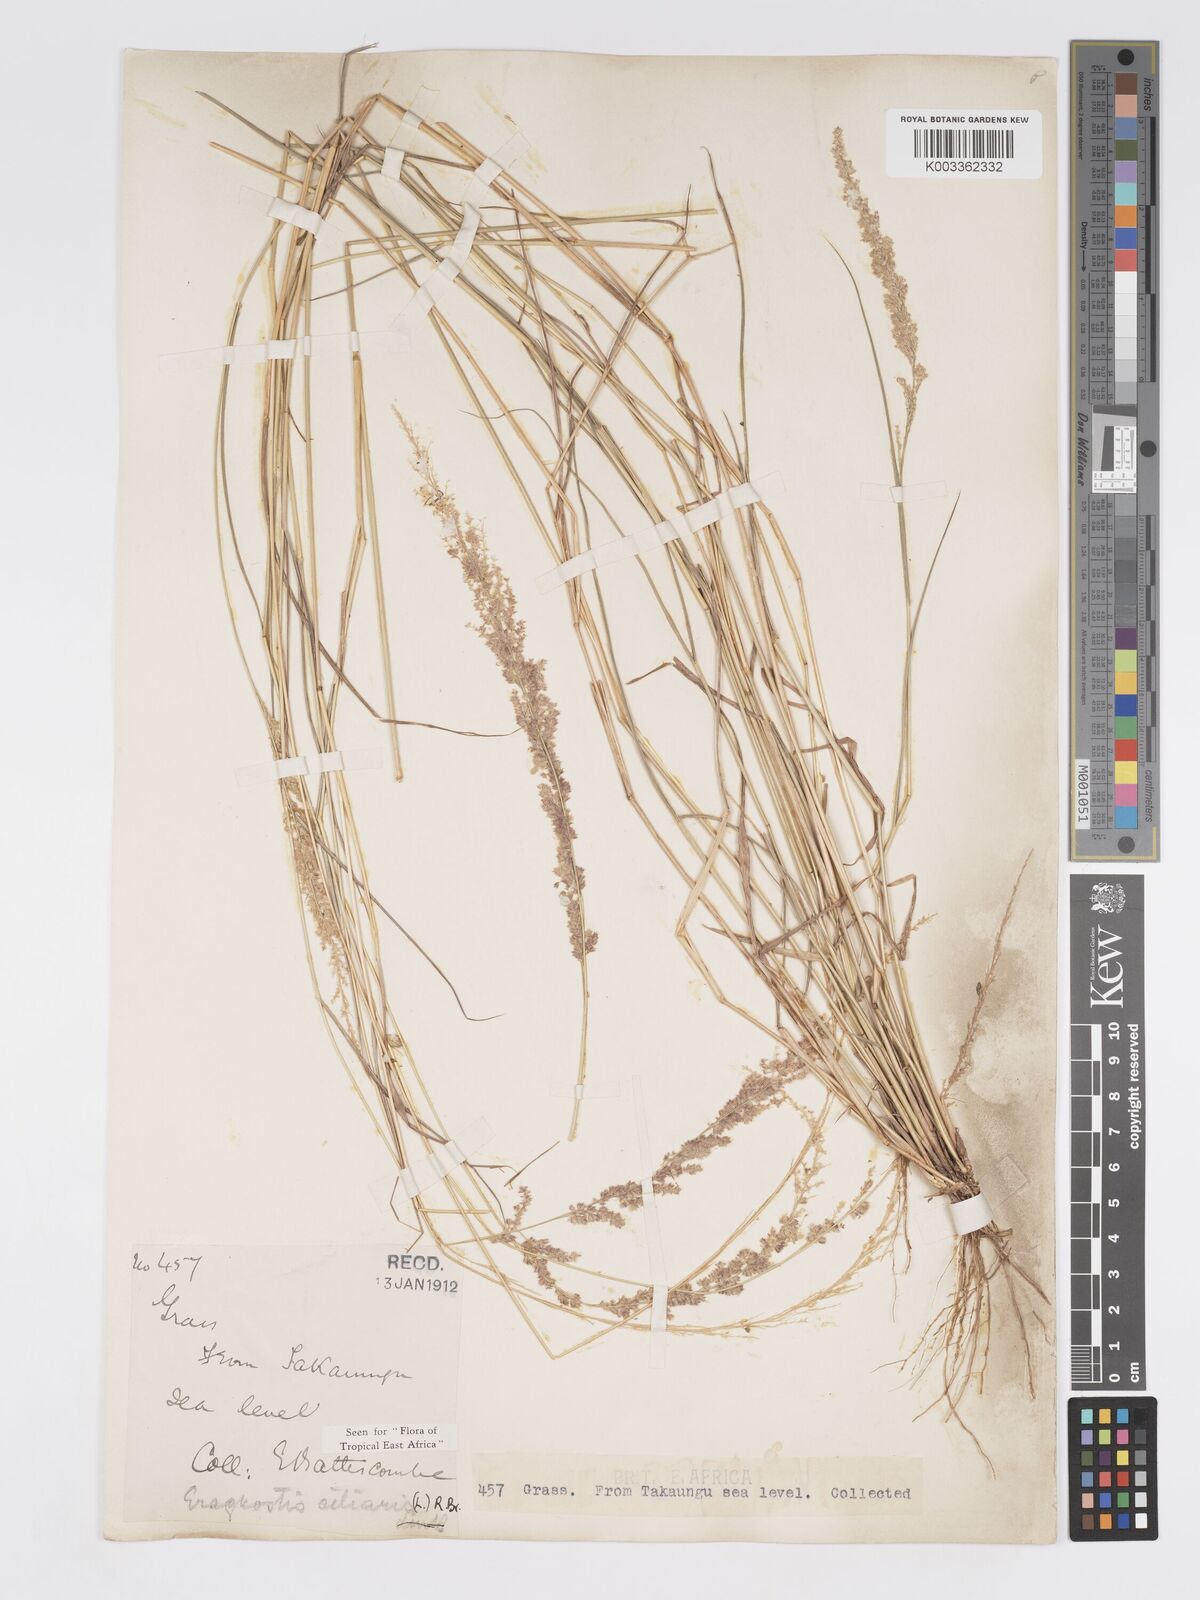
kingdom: Plantae
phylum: Tracheophyta
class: Liliopsida
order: Poales
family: Poaceae
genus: Eragrostis
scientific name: Eragrostis ciliaris
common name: Gophertail lovegrass
